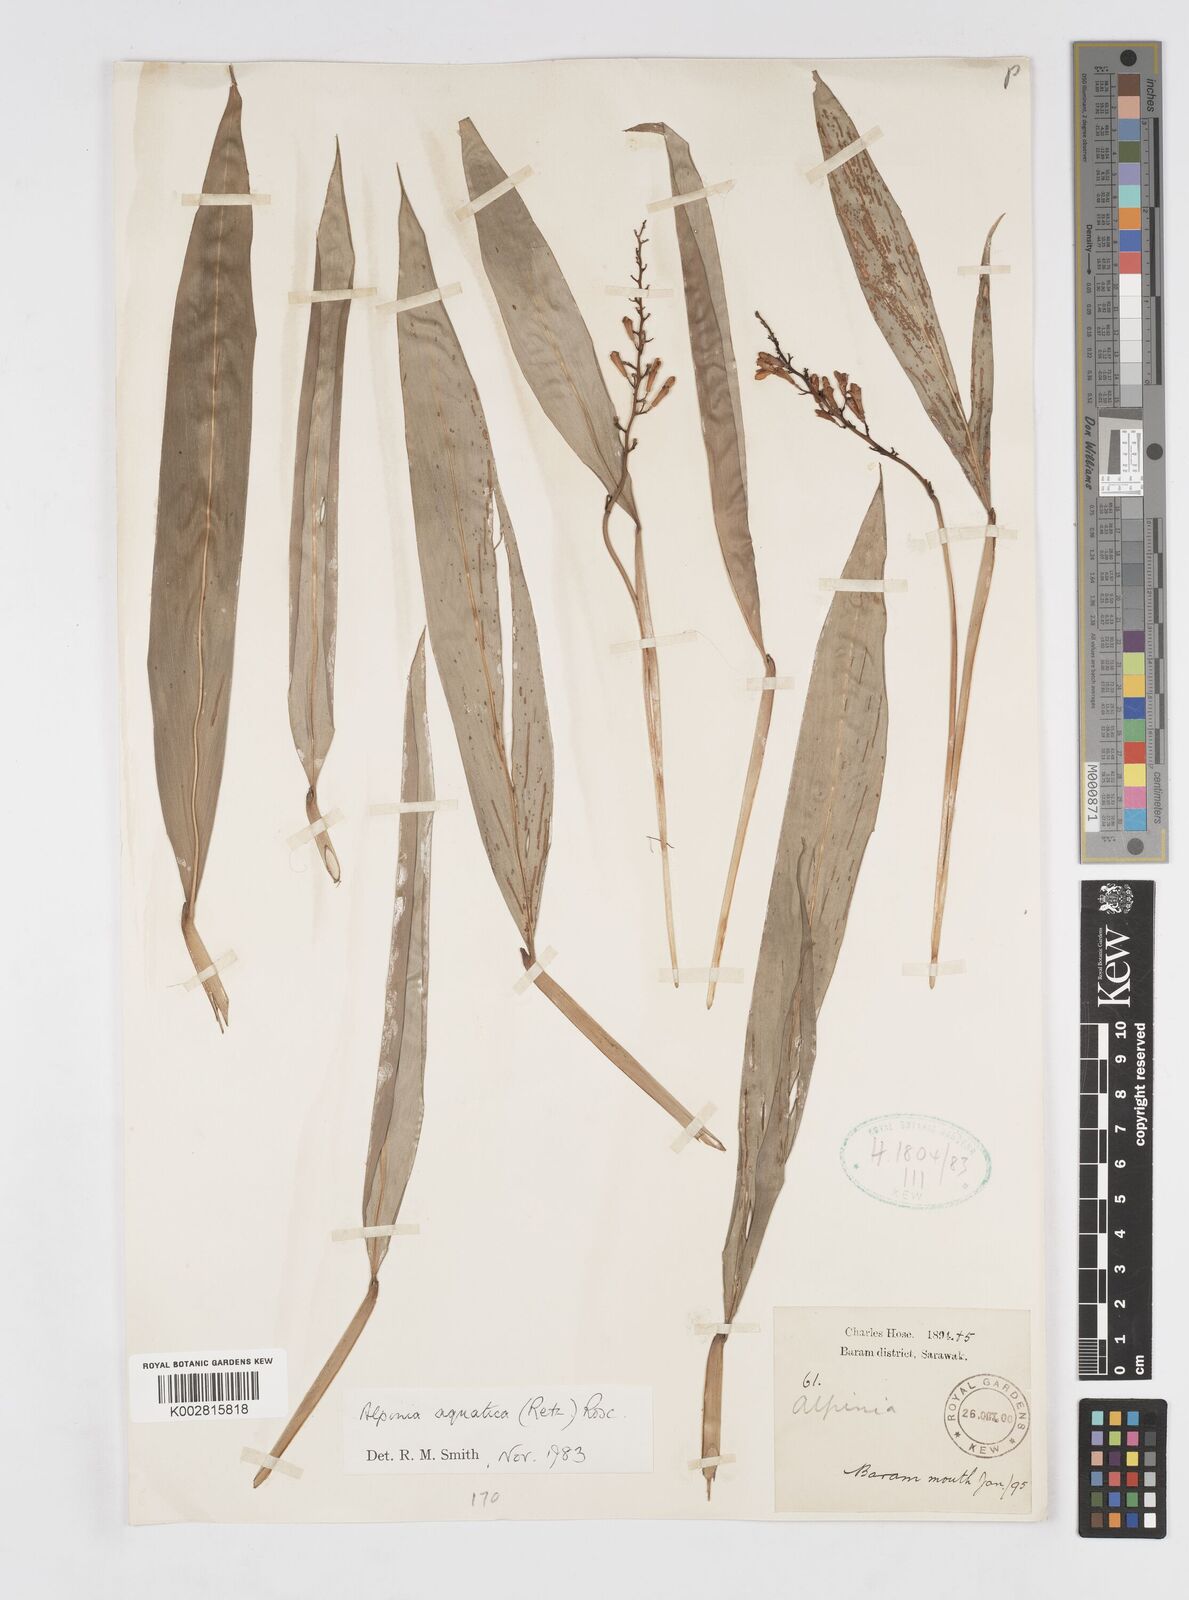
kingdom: Plantae
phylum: Tracheophyta
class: Liliopsida
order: Zingiberales
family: Zingiberaceae
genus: Alpinia
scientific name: Alpinia aquatica
